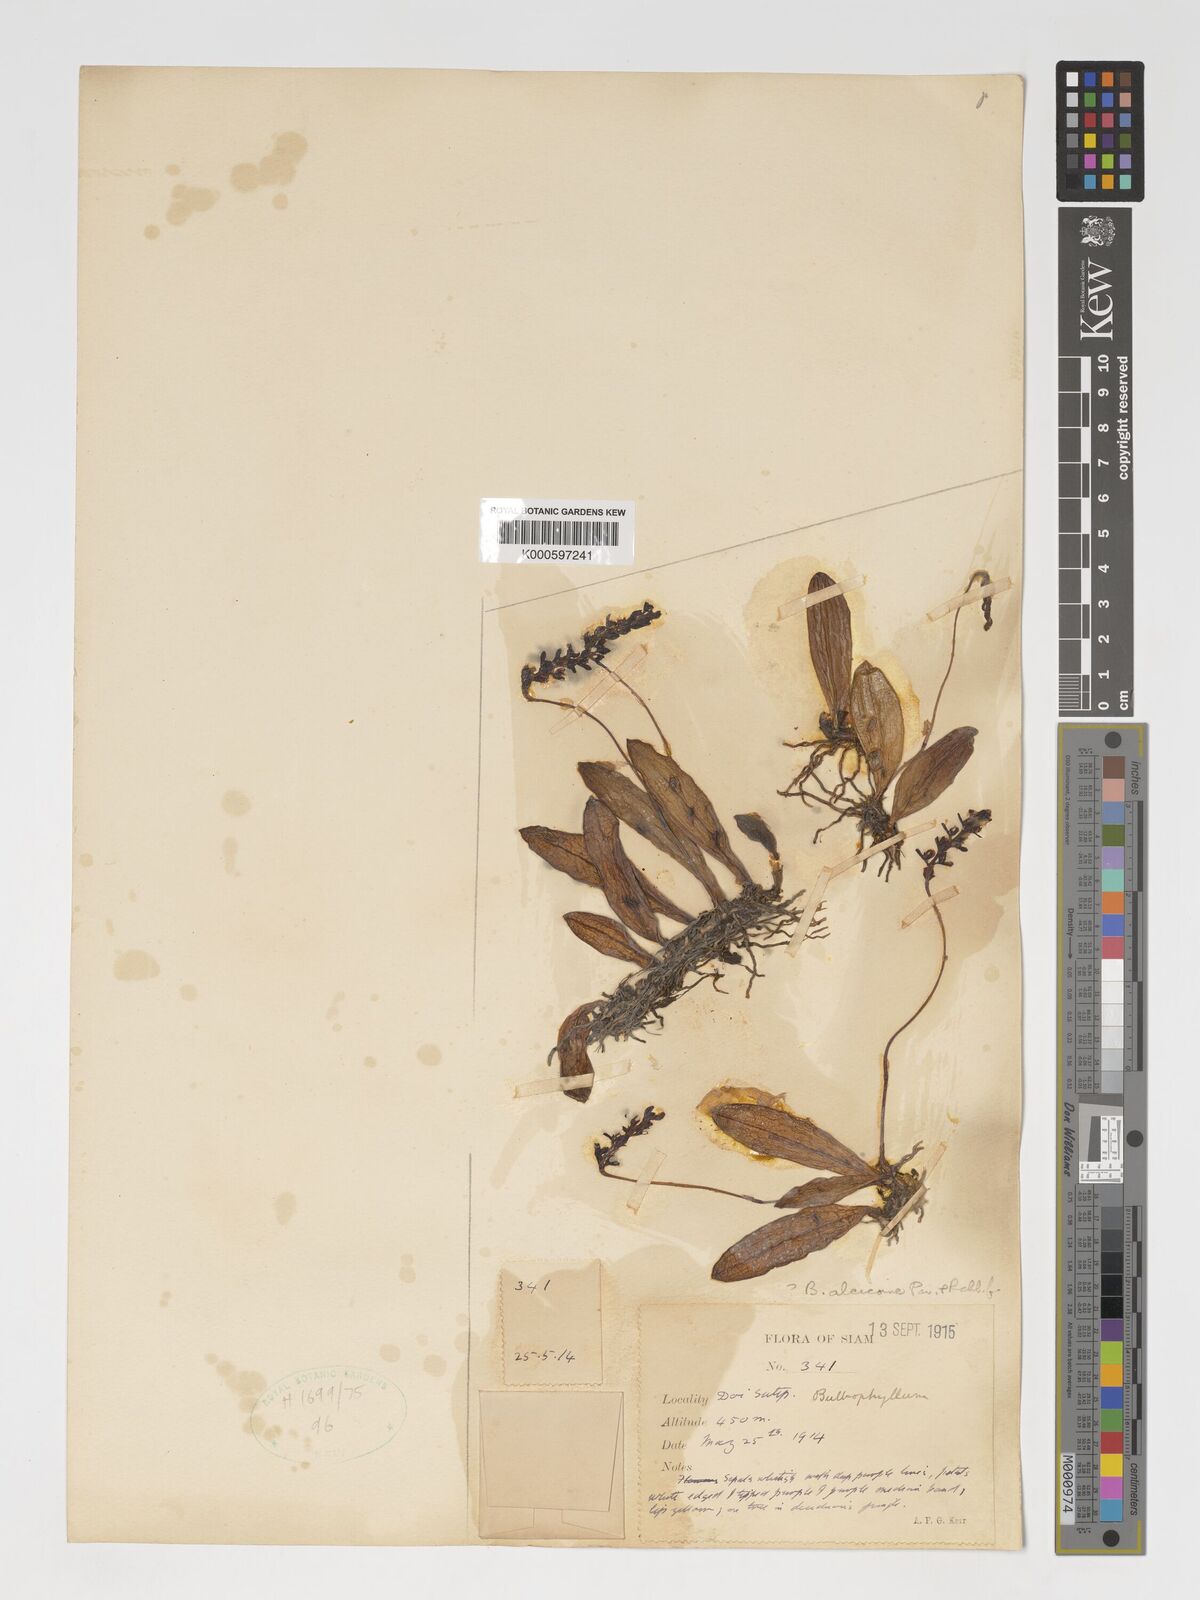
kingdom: Plantae
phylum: Tracheophyta
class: Liliopsida
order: Asparagales
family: Orchidaceae
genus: Bulbophyllum
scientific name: Bulbophyllum alcicorne
